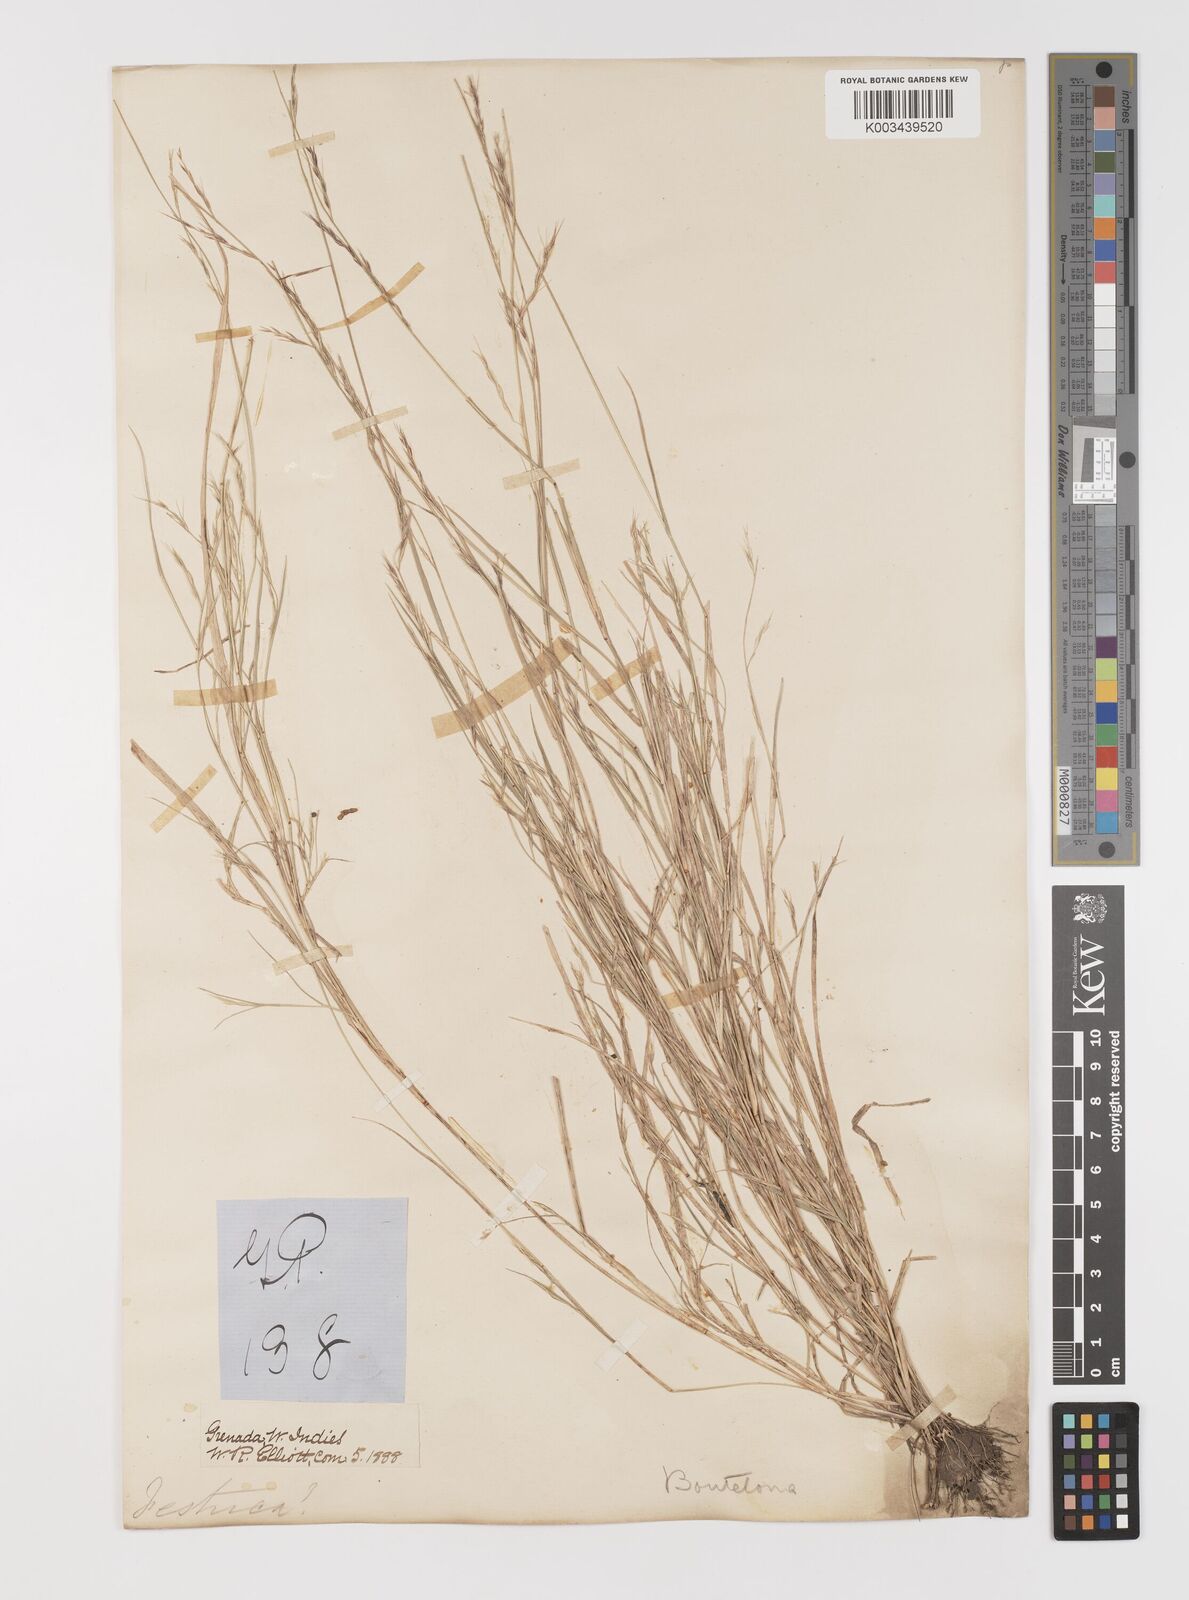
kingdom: Plantae
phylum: Tracheophyta
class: Liliopsida
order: Poales
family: Poaceae
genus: Bouteloua
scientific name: Bouteloua americana
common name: Mule grass
